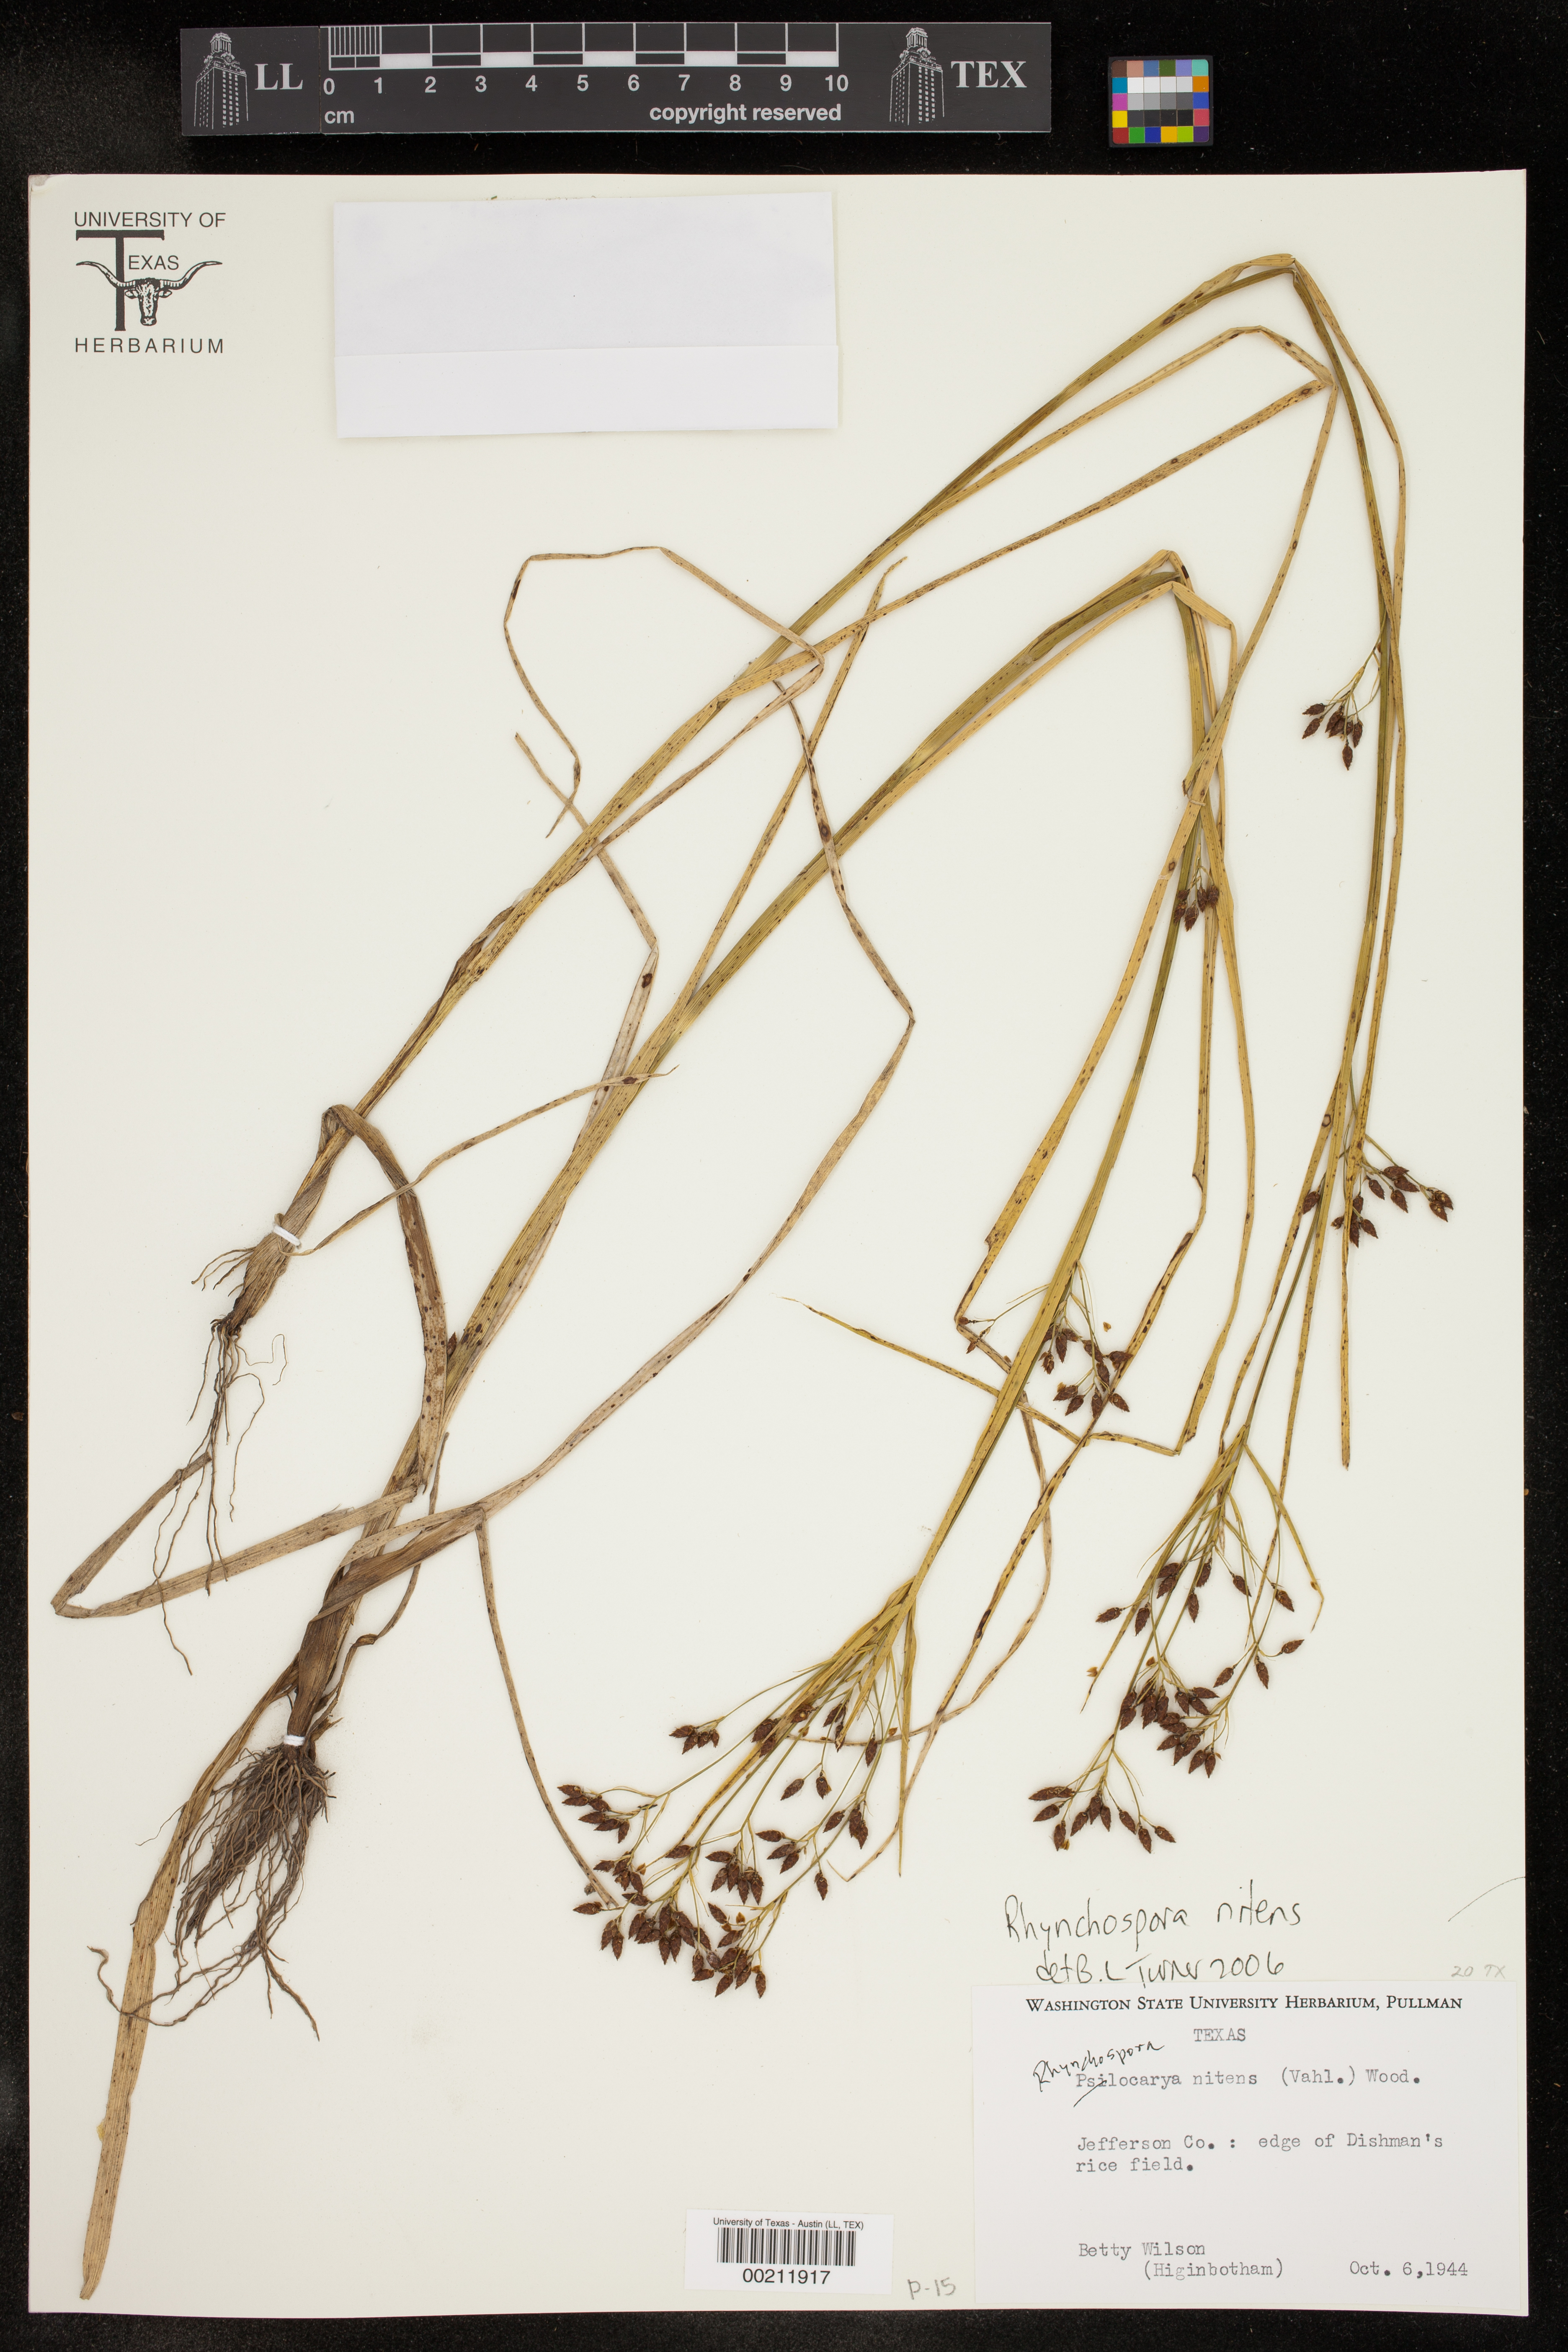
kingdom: Plantae
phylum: Tracheophyta
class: Liliopsida
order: Poales
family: Cyperaceae
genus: Rhynchospora
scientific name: Rhynchospora nitens
